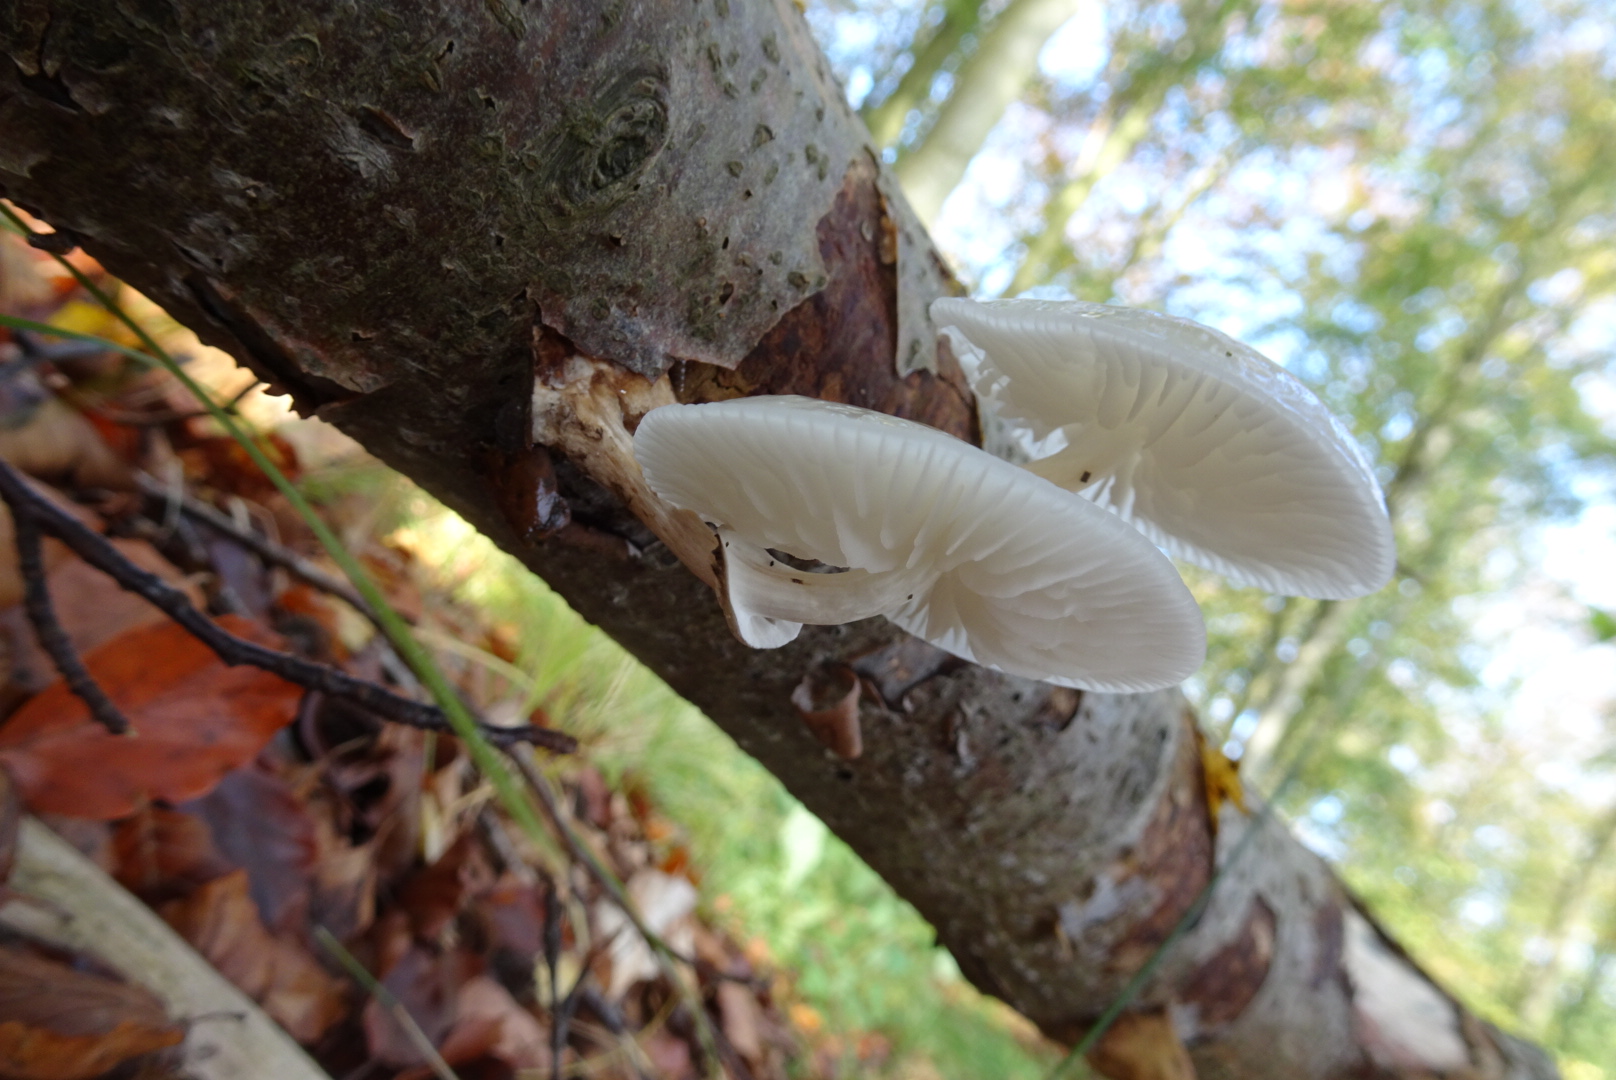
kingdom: Fungi
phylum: Basidiomycota
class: Agaricomycetes
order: Agaricales
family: Physalacriaceae
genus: Mucidula
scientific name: Mucidula mucida
